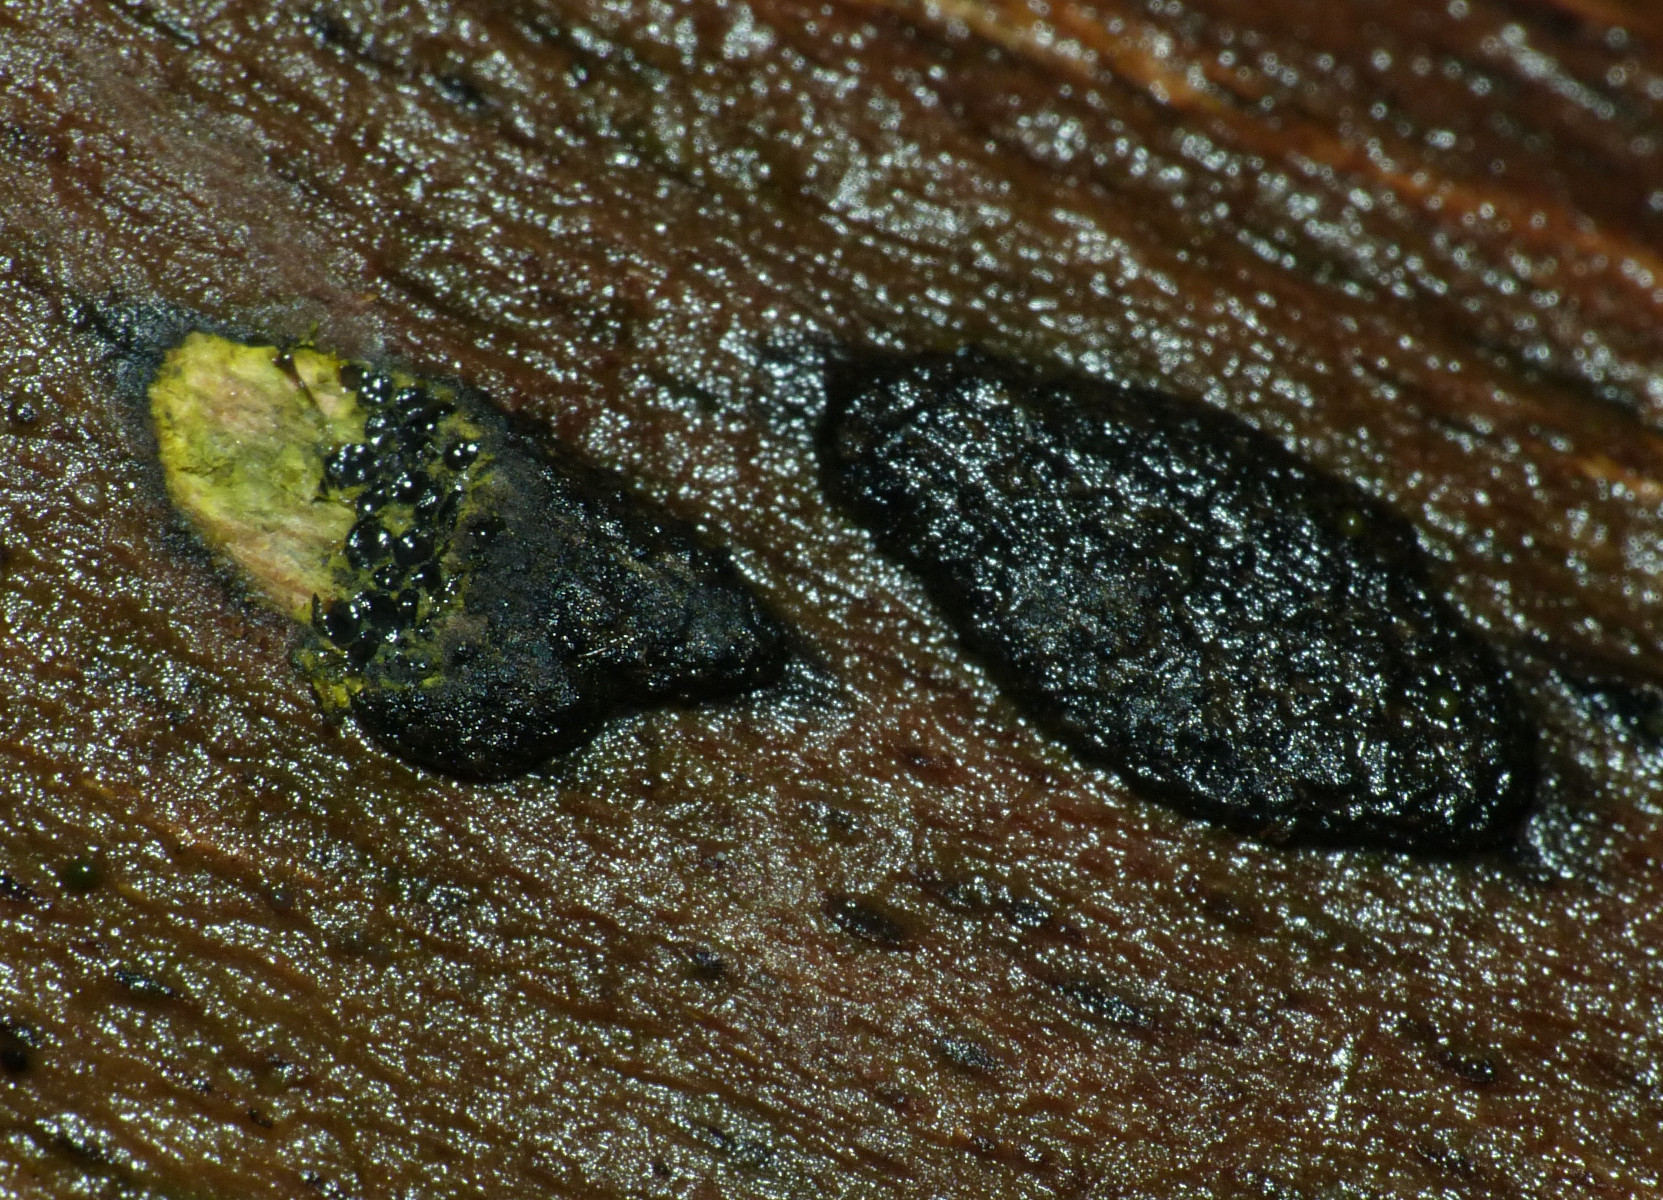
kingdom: Fungi
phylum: Ascomycota
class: Sordariomycetes
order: Xylariales
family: Diatrypaceae
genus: Eutypa
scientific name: Eutypa flavovirens
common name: grønkødet kulskorpe
